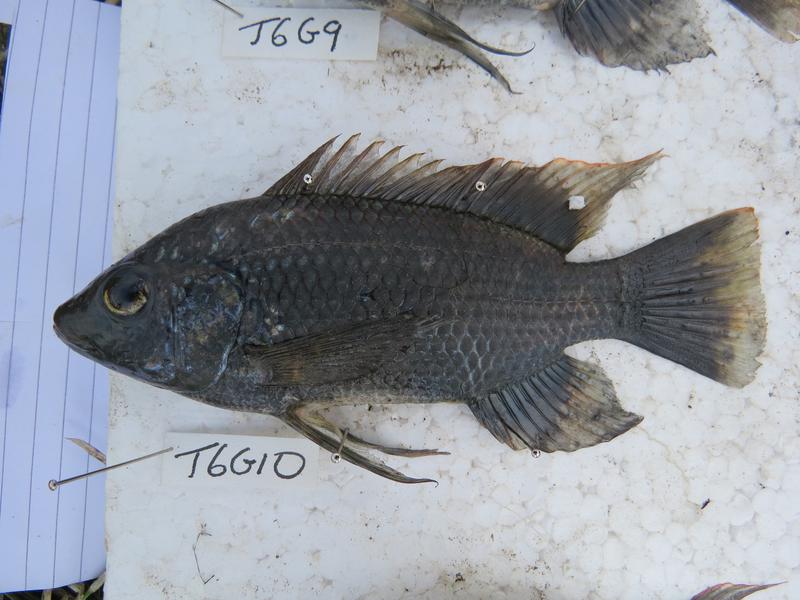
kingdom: Animalia
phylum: Chordata
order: Perciformes
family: Cichlidae
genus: Oreochromis
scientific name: Oreochromis urolepis
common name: Wami tilapia
